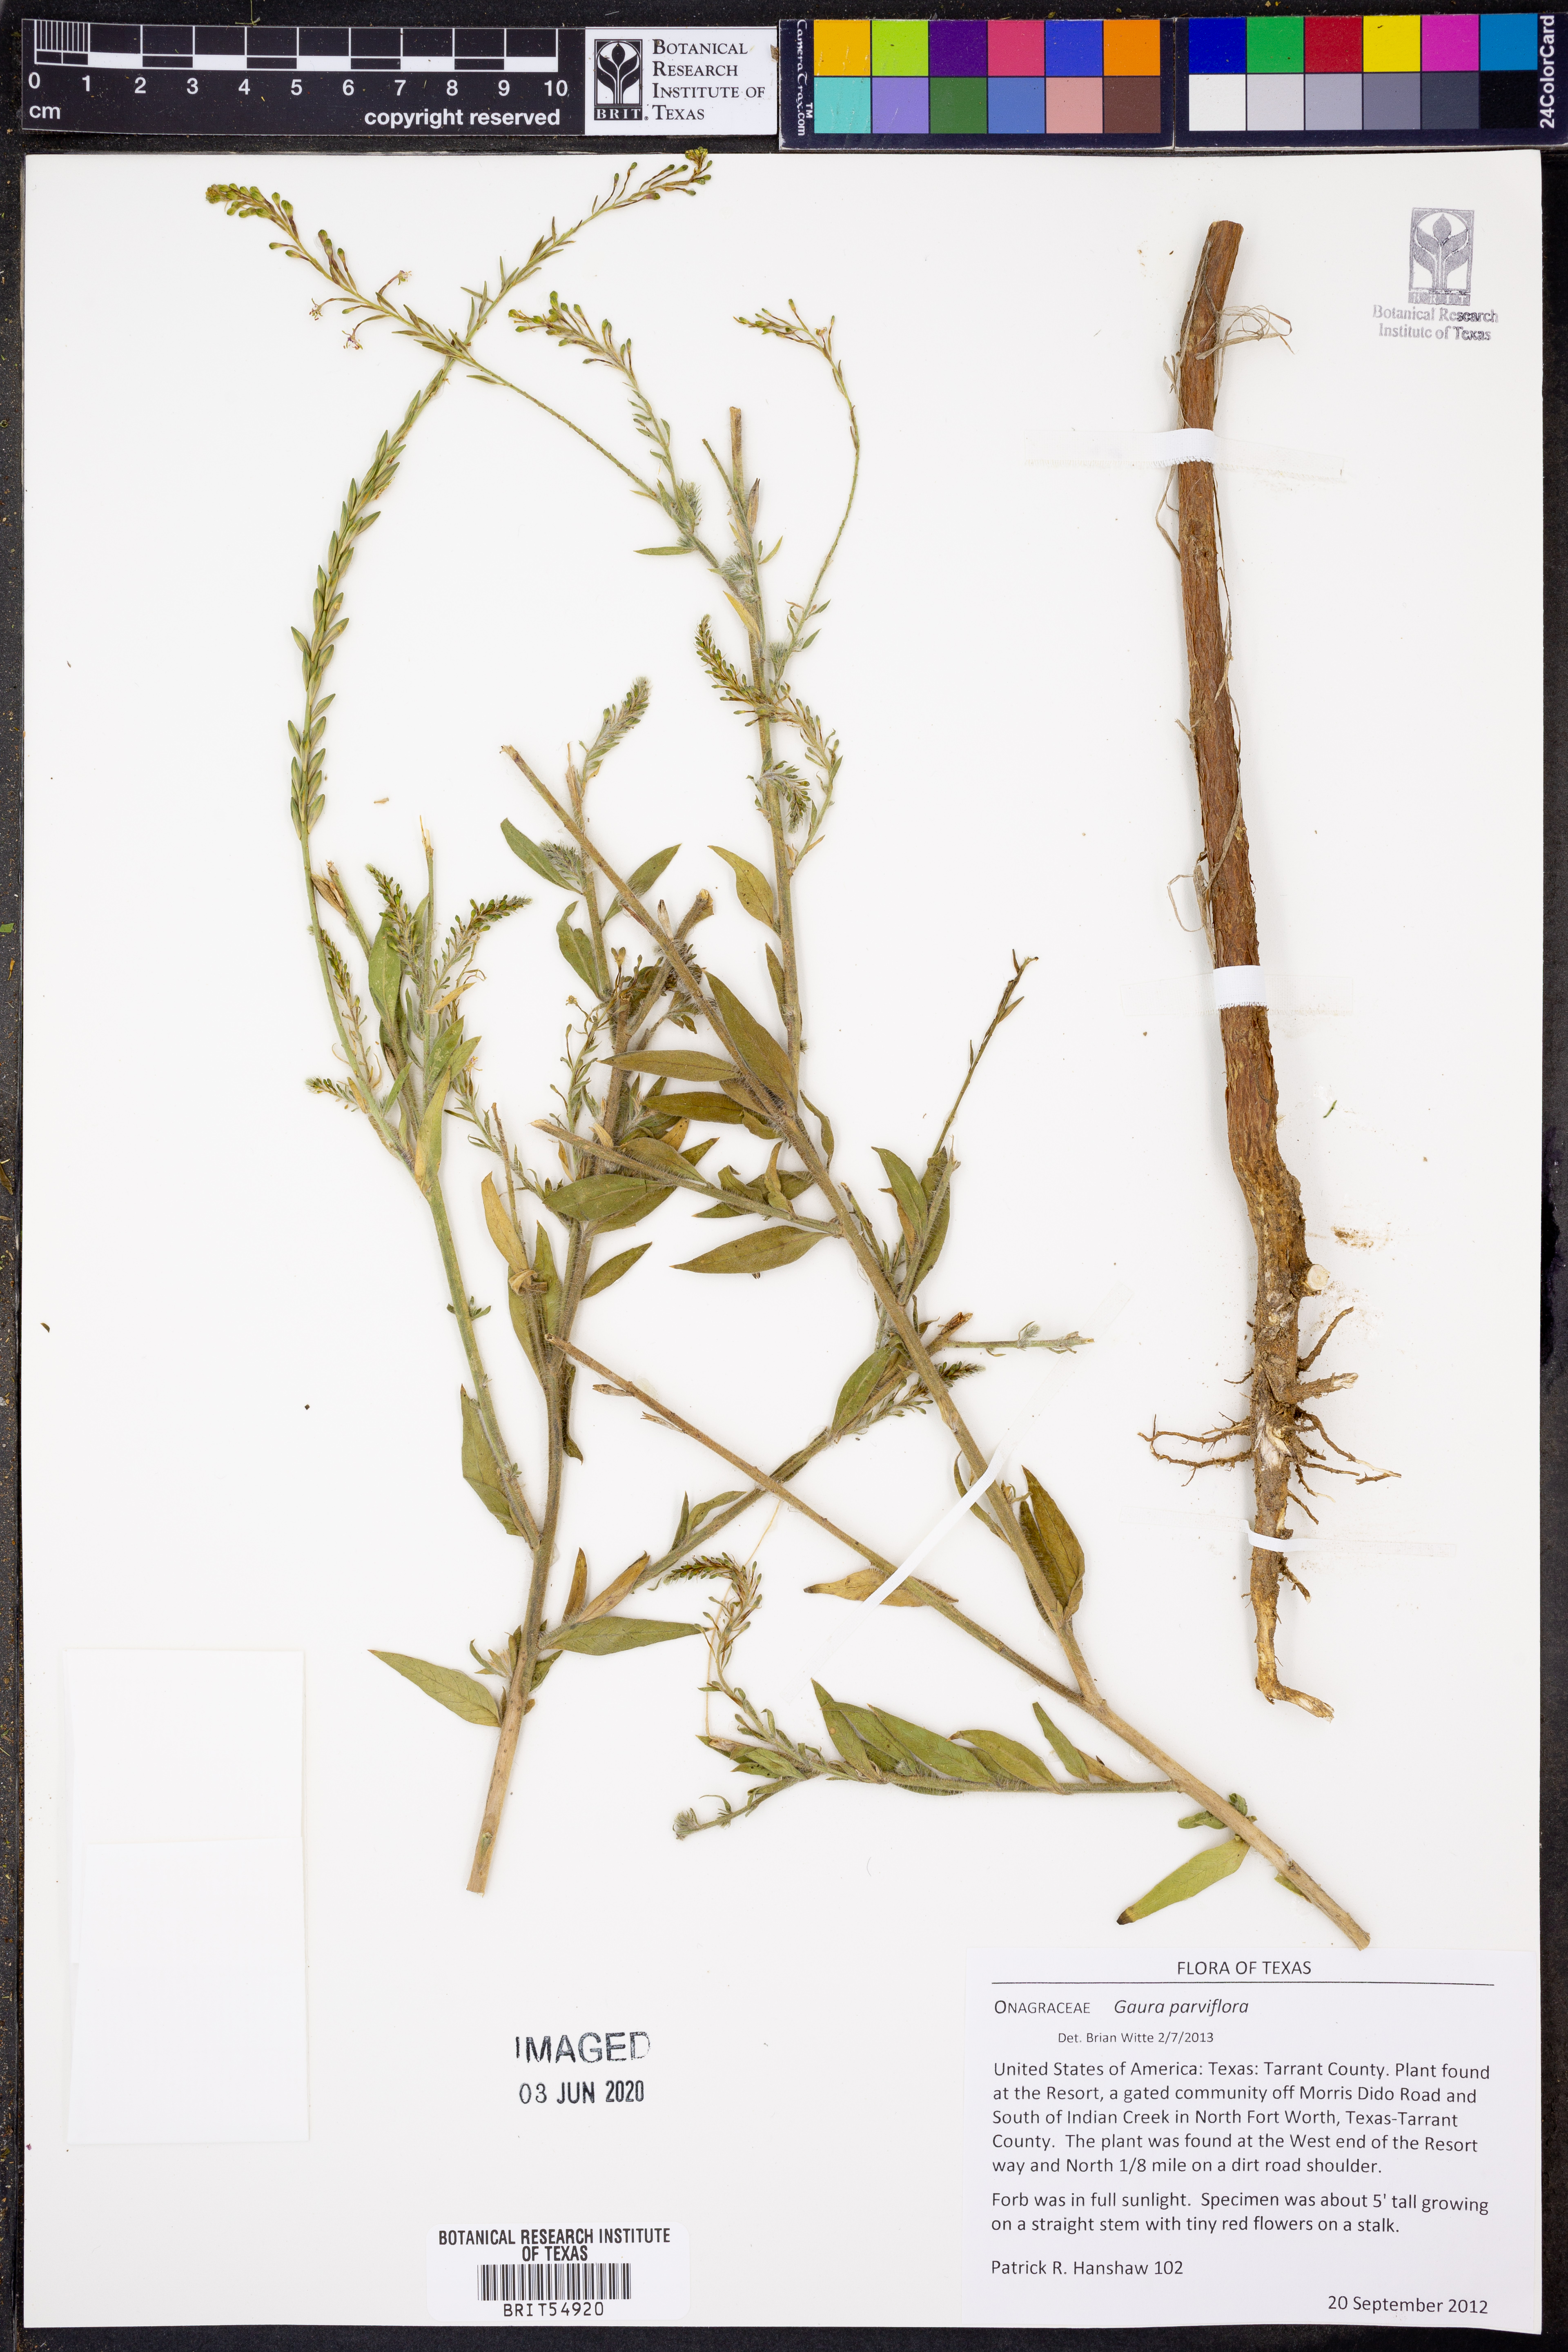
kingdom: Plantae
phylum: Tracheophyta
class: Magnoliopsida
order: Myrtales
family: Onagraceae
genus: Oenothera
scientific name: Oenothera curtiflora
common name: Velvetweed
